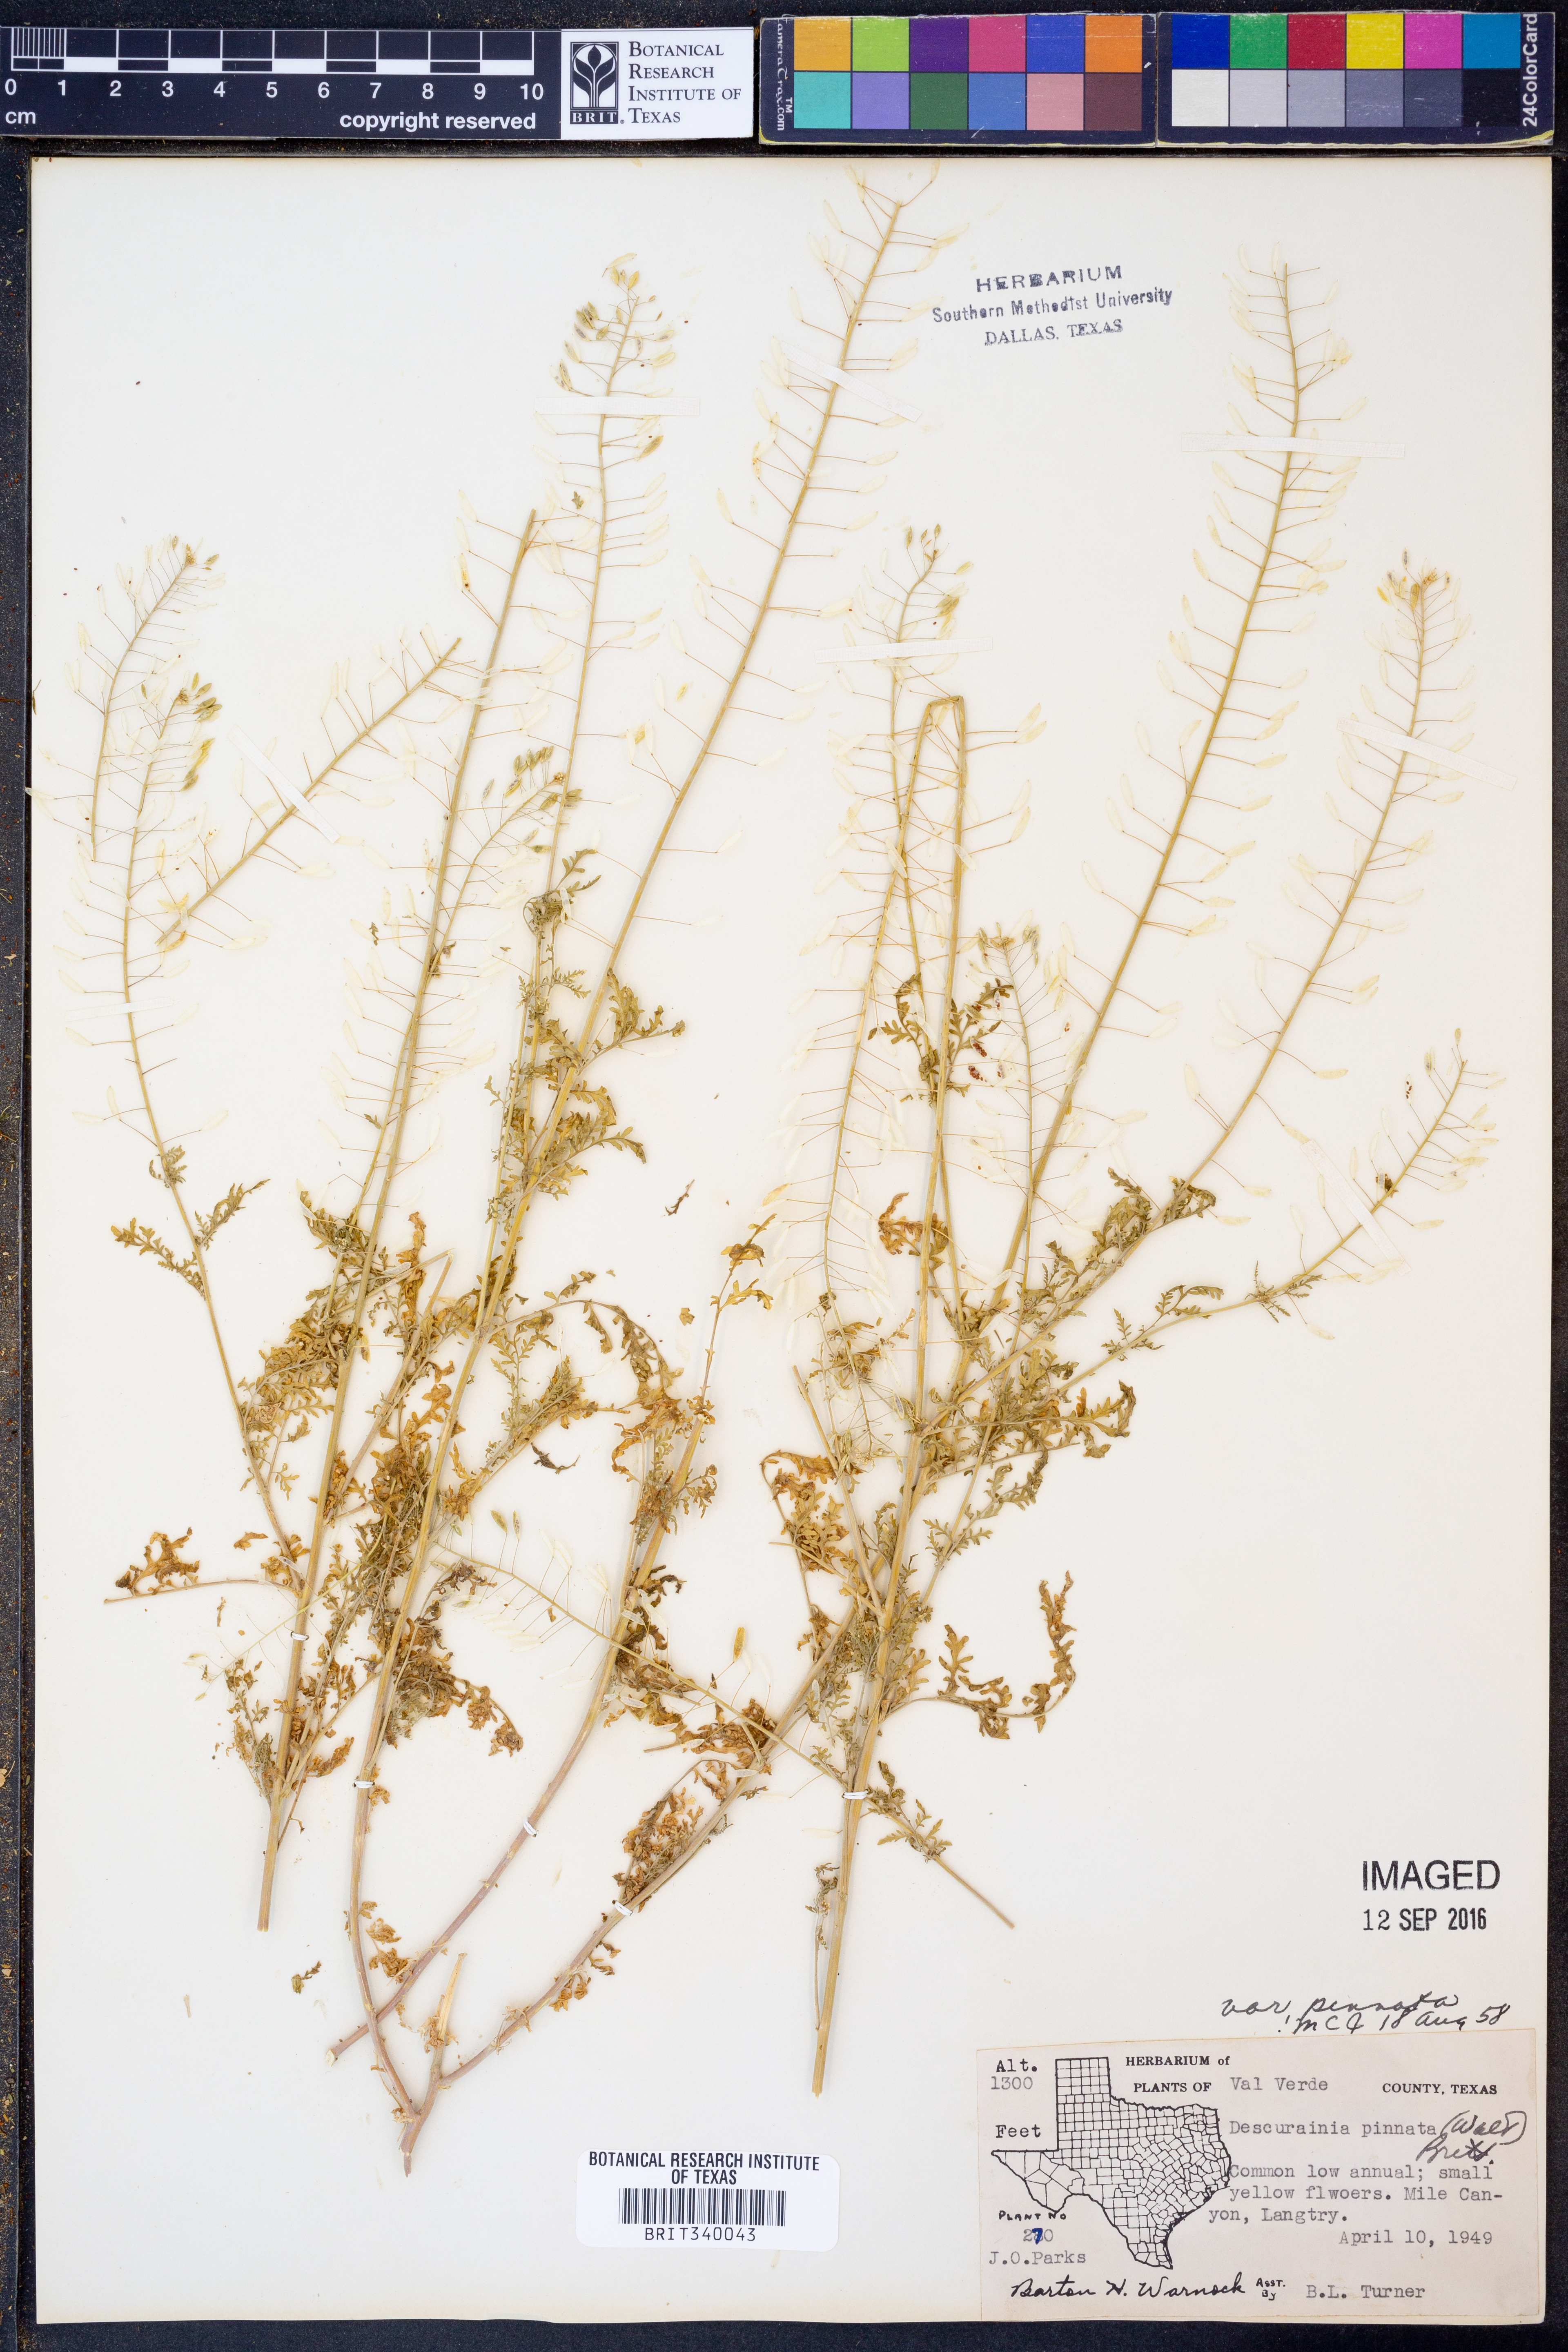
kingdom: Plantae
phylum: Tracheophyta
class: Magnoliopsida
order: Brassicales
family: Brassicaceae
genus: Descurainia
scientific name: Descurainia pinnata
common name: Western tansy mustard
